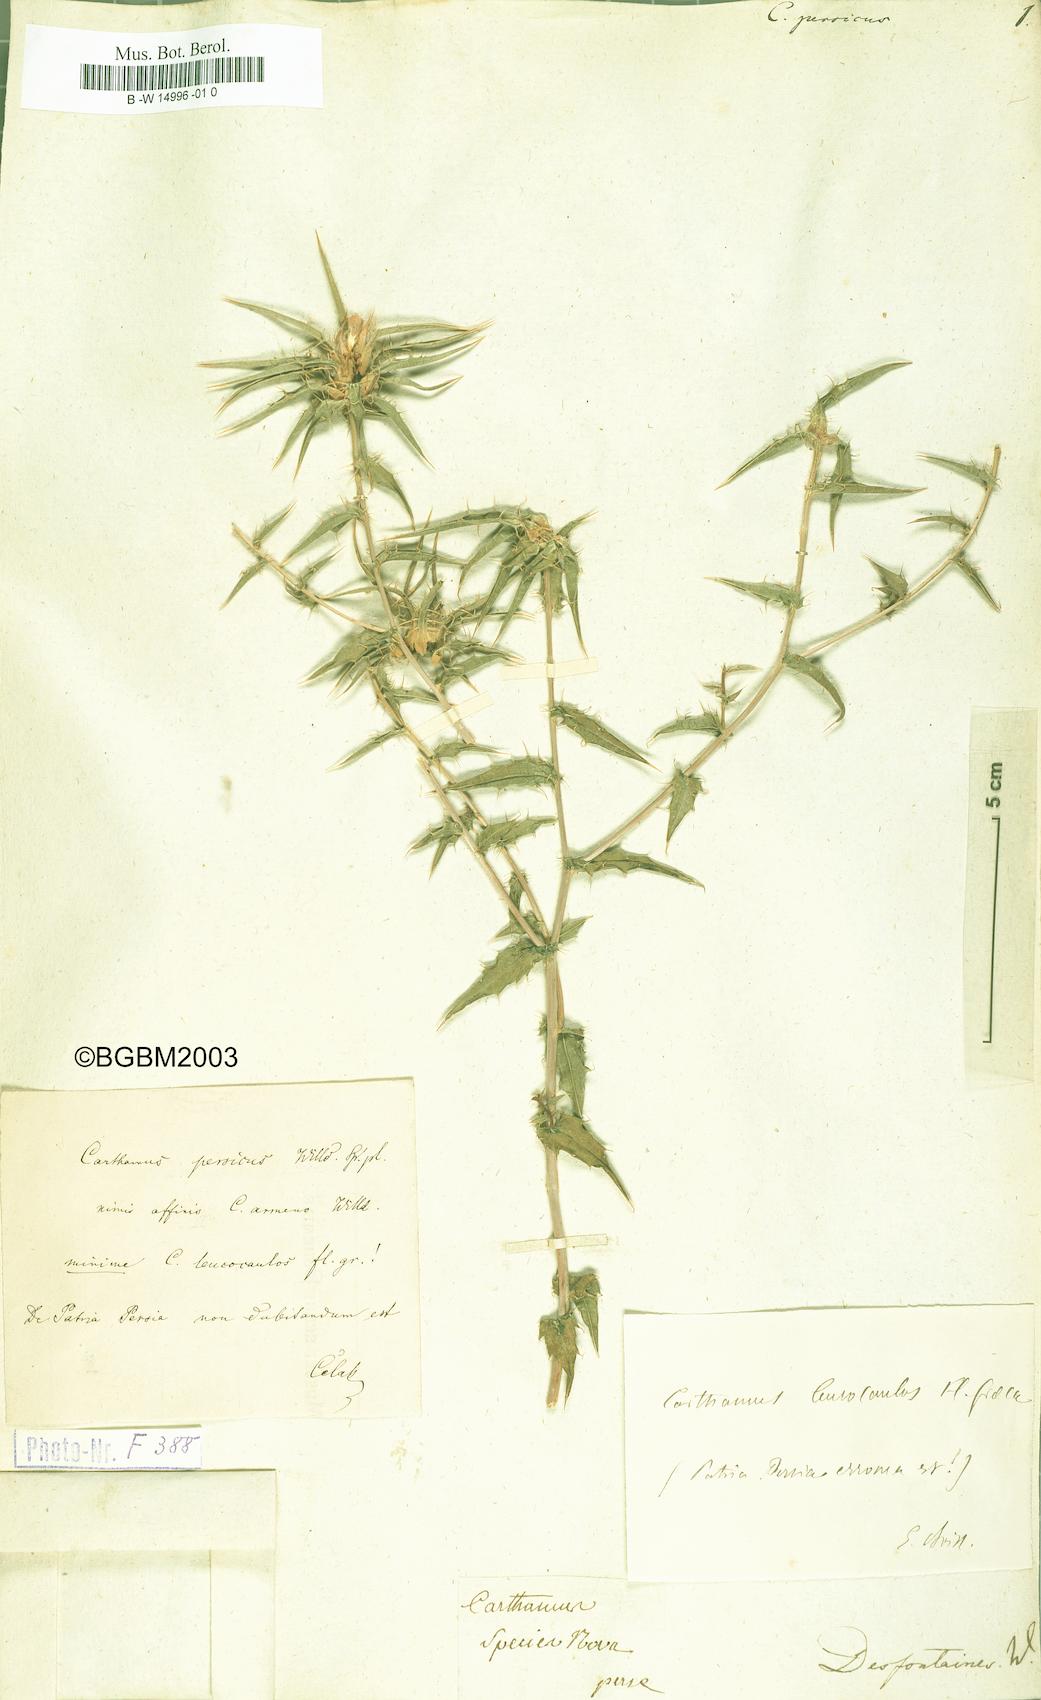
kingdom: Plantae
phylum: Tracheophyta
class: Magnoliopsida
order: Asterales
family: Asteraceae
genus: Carthamus
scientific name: Carthamus persicus
